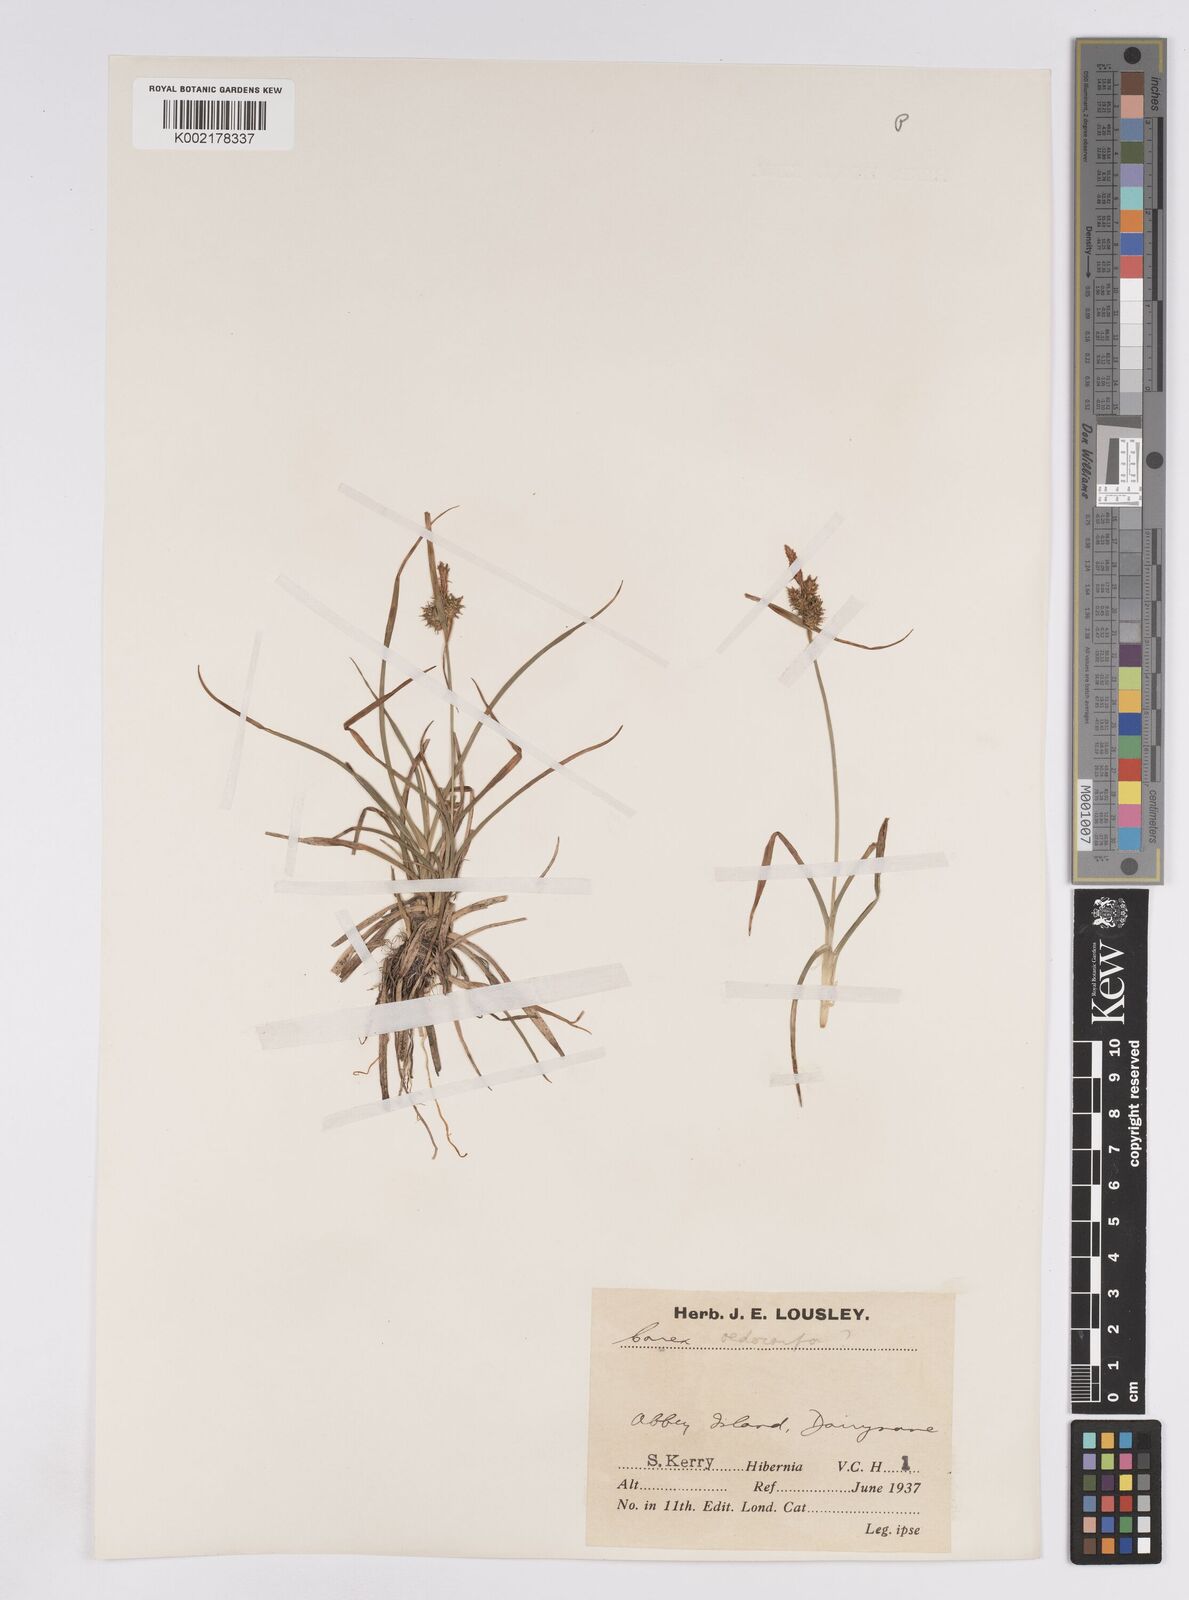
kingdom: Plantae
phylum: Tracheophyta
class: Liliopsida
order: Poales
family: Cyperaceae
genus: Carex
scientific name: Carex demissa
